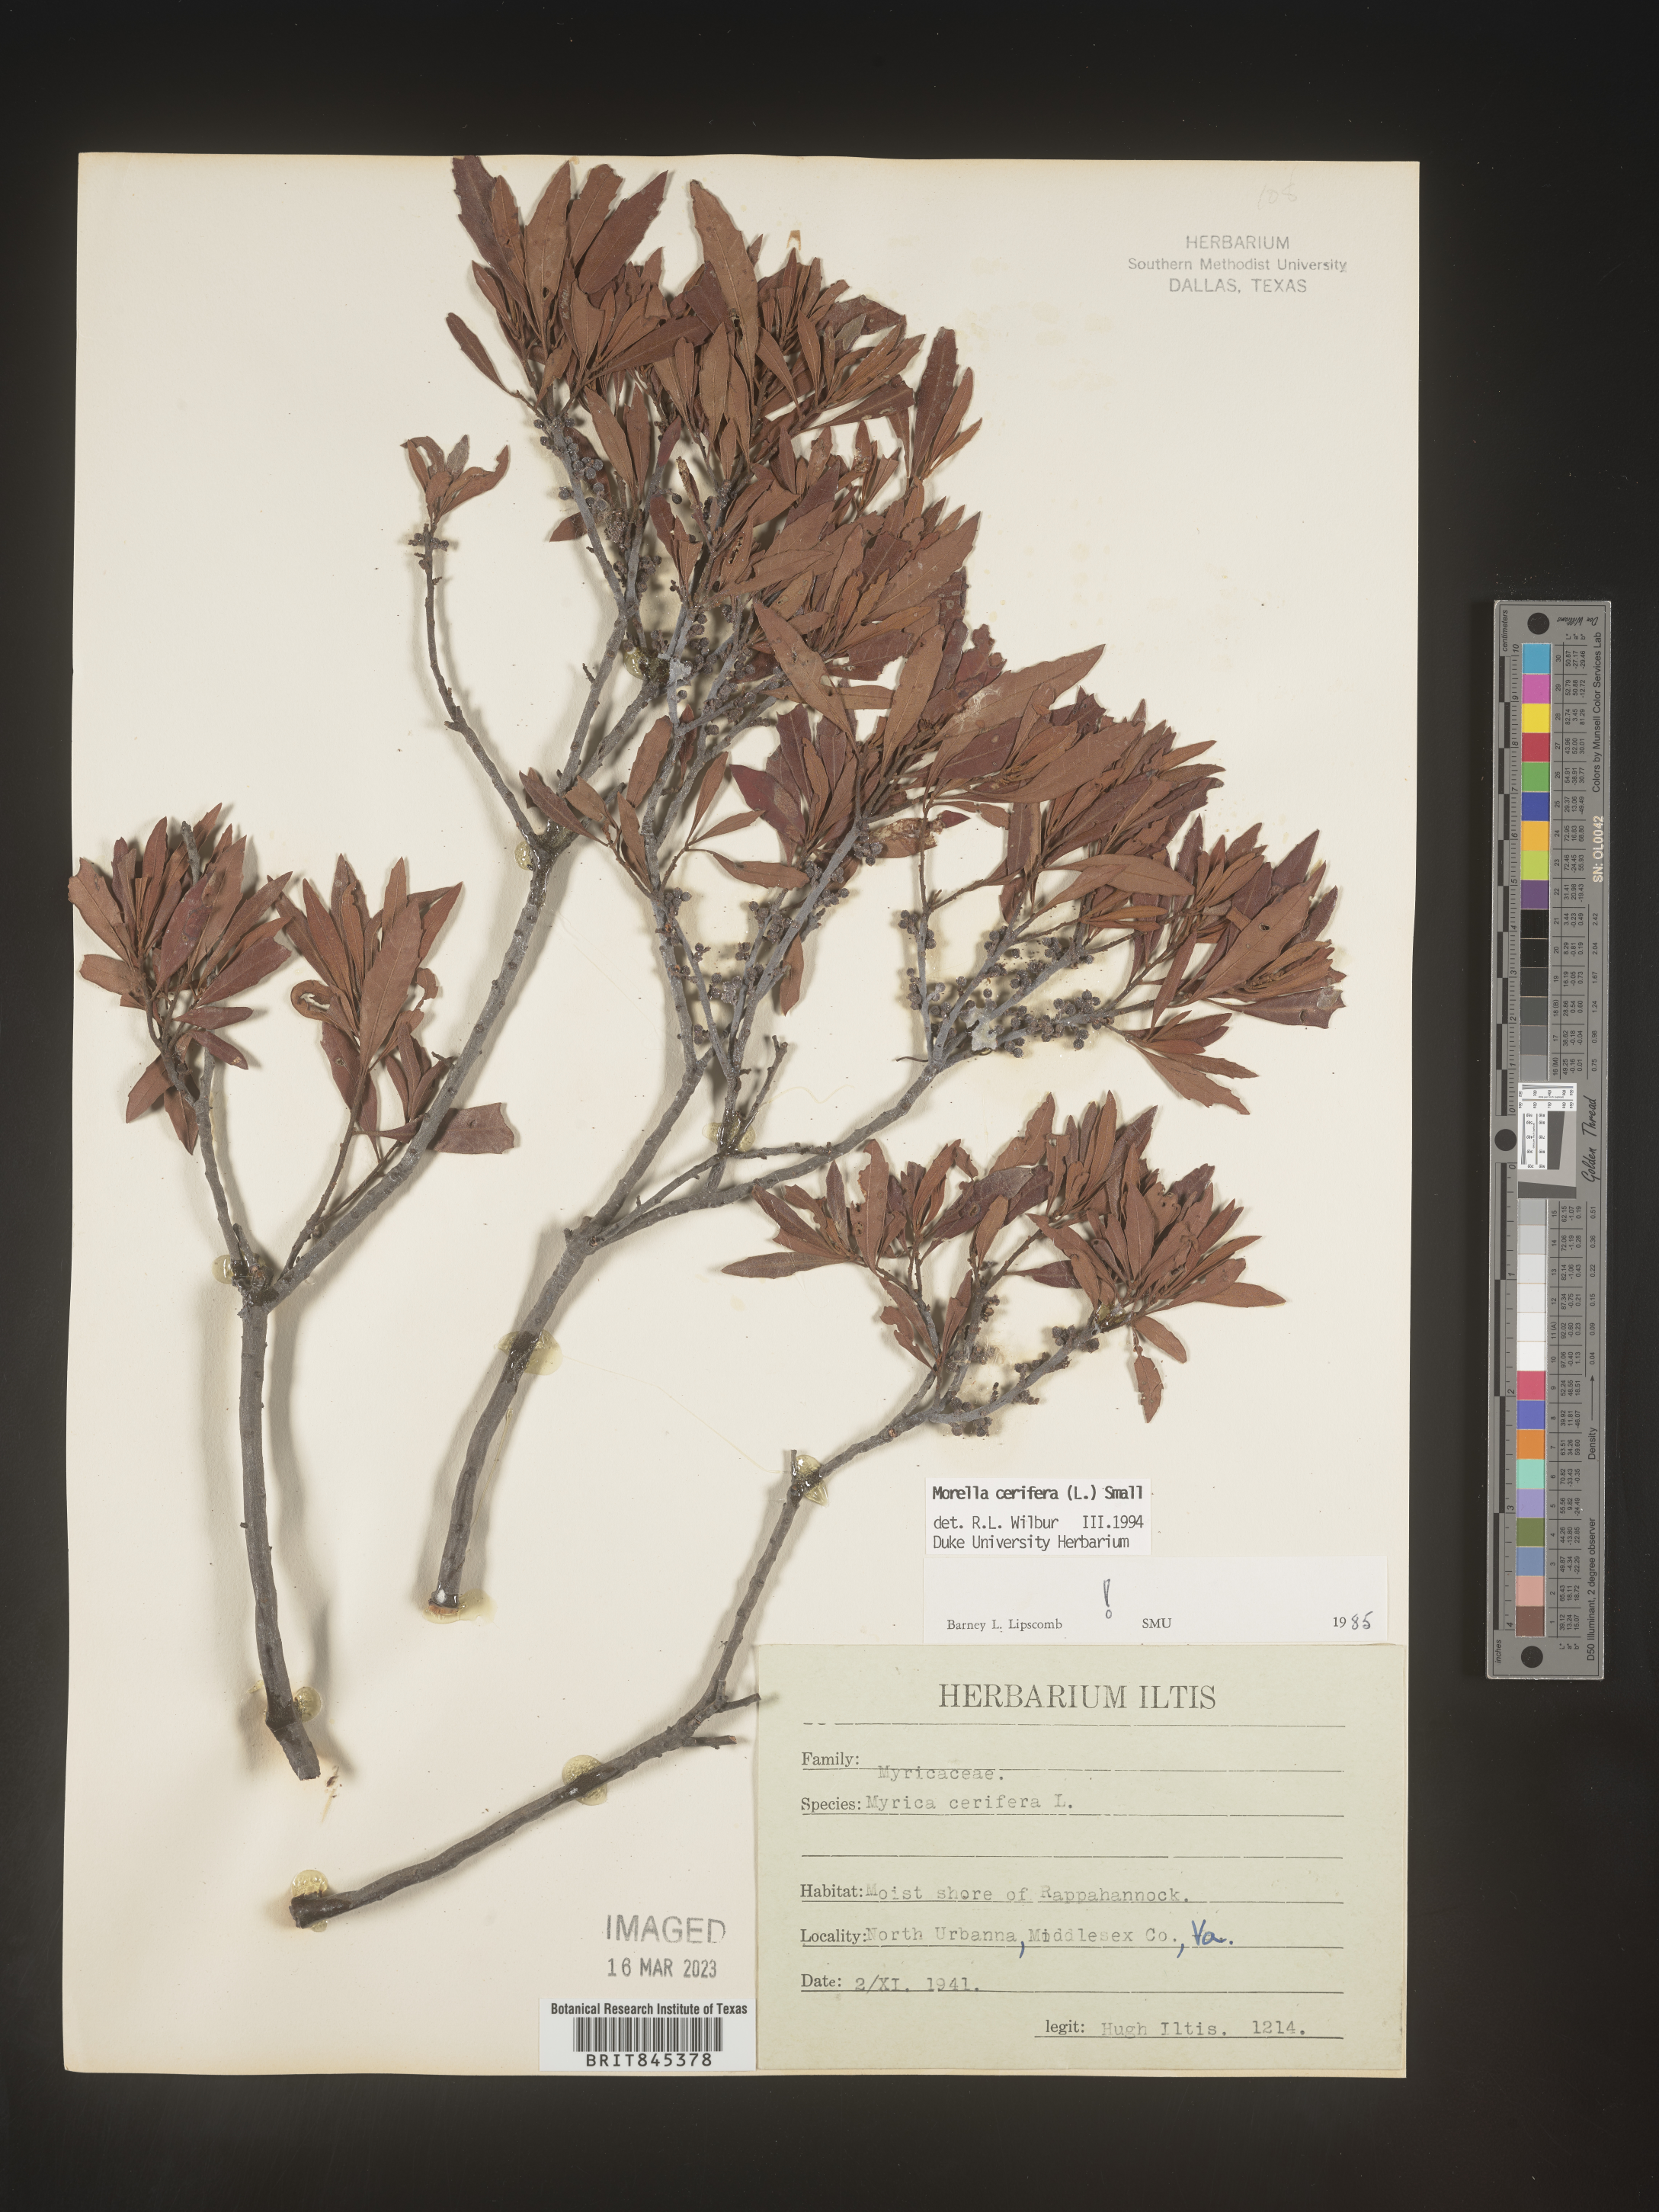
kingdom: Plantae
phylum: Tracheophyta
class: Magnoliopsida
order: Fagales
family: Myricaceae
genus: Morella
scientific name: Morella cerifera
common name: Wax myrtle
